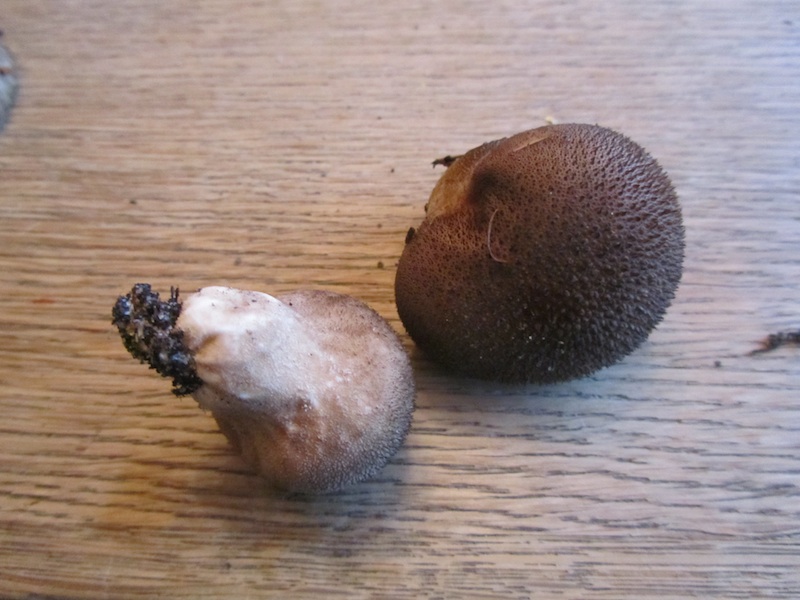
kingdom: Fungi
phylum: Basidiomycota
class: Agaricomycetes
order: Agaricales
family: Lycoperdaceae
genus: Lycoperdon
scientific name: Lycoperdon nigrescens
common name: sortagtig støvbold
